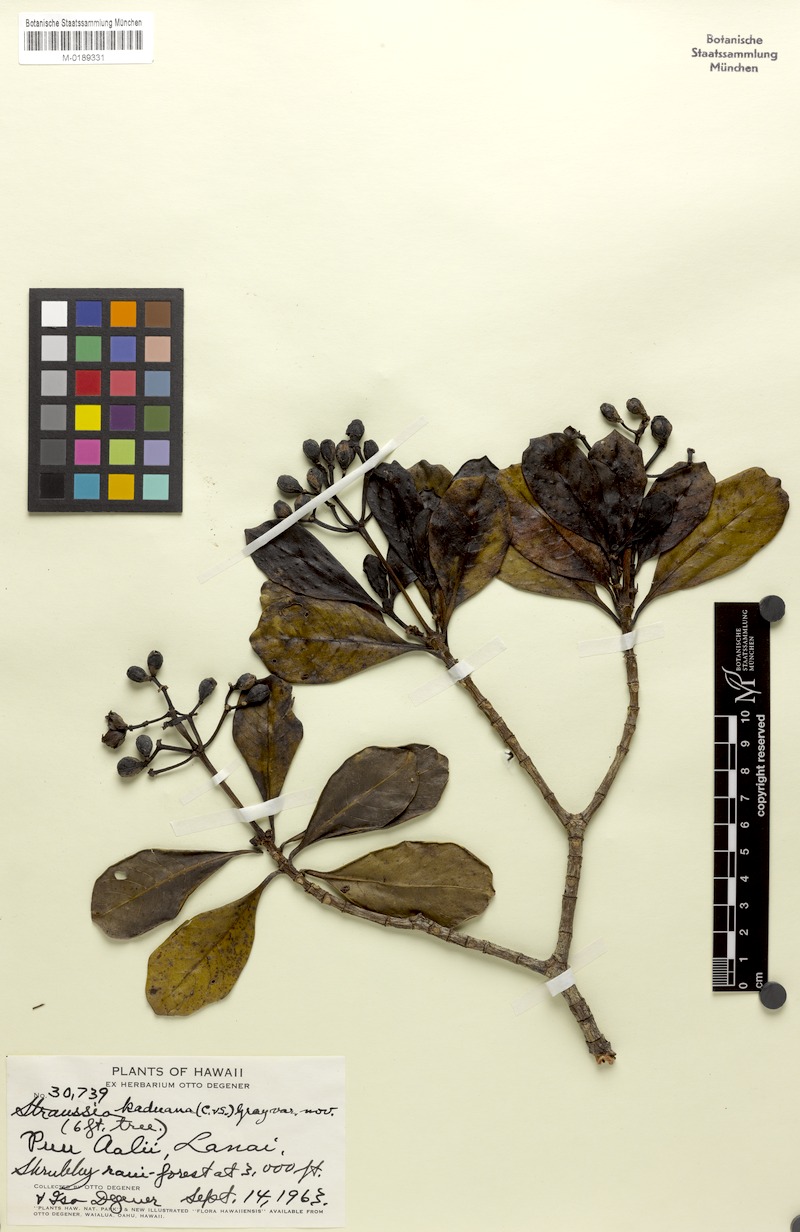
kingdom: Plantae
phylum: Tracheophyta
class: Magnoliopsida
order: Gentianales
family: Rubiaceae
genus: Psychotria
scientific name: Psychotria wawrae
